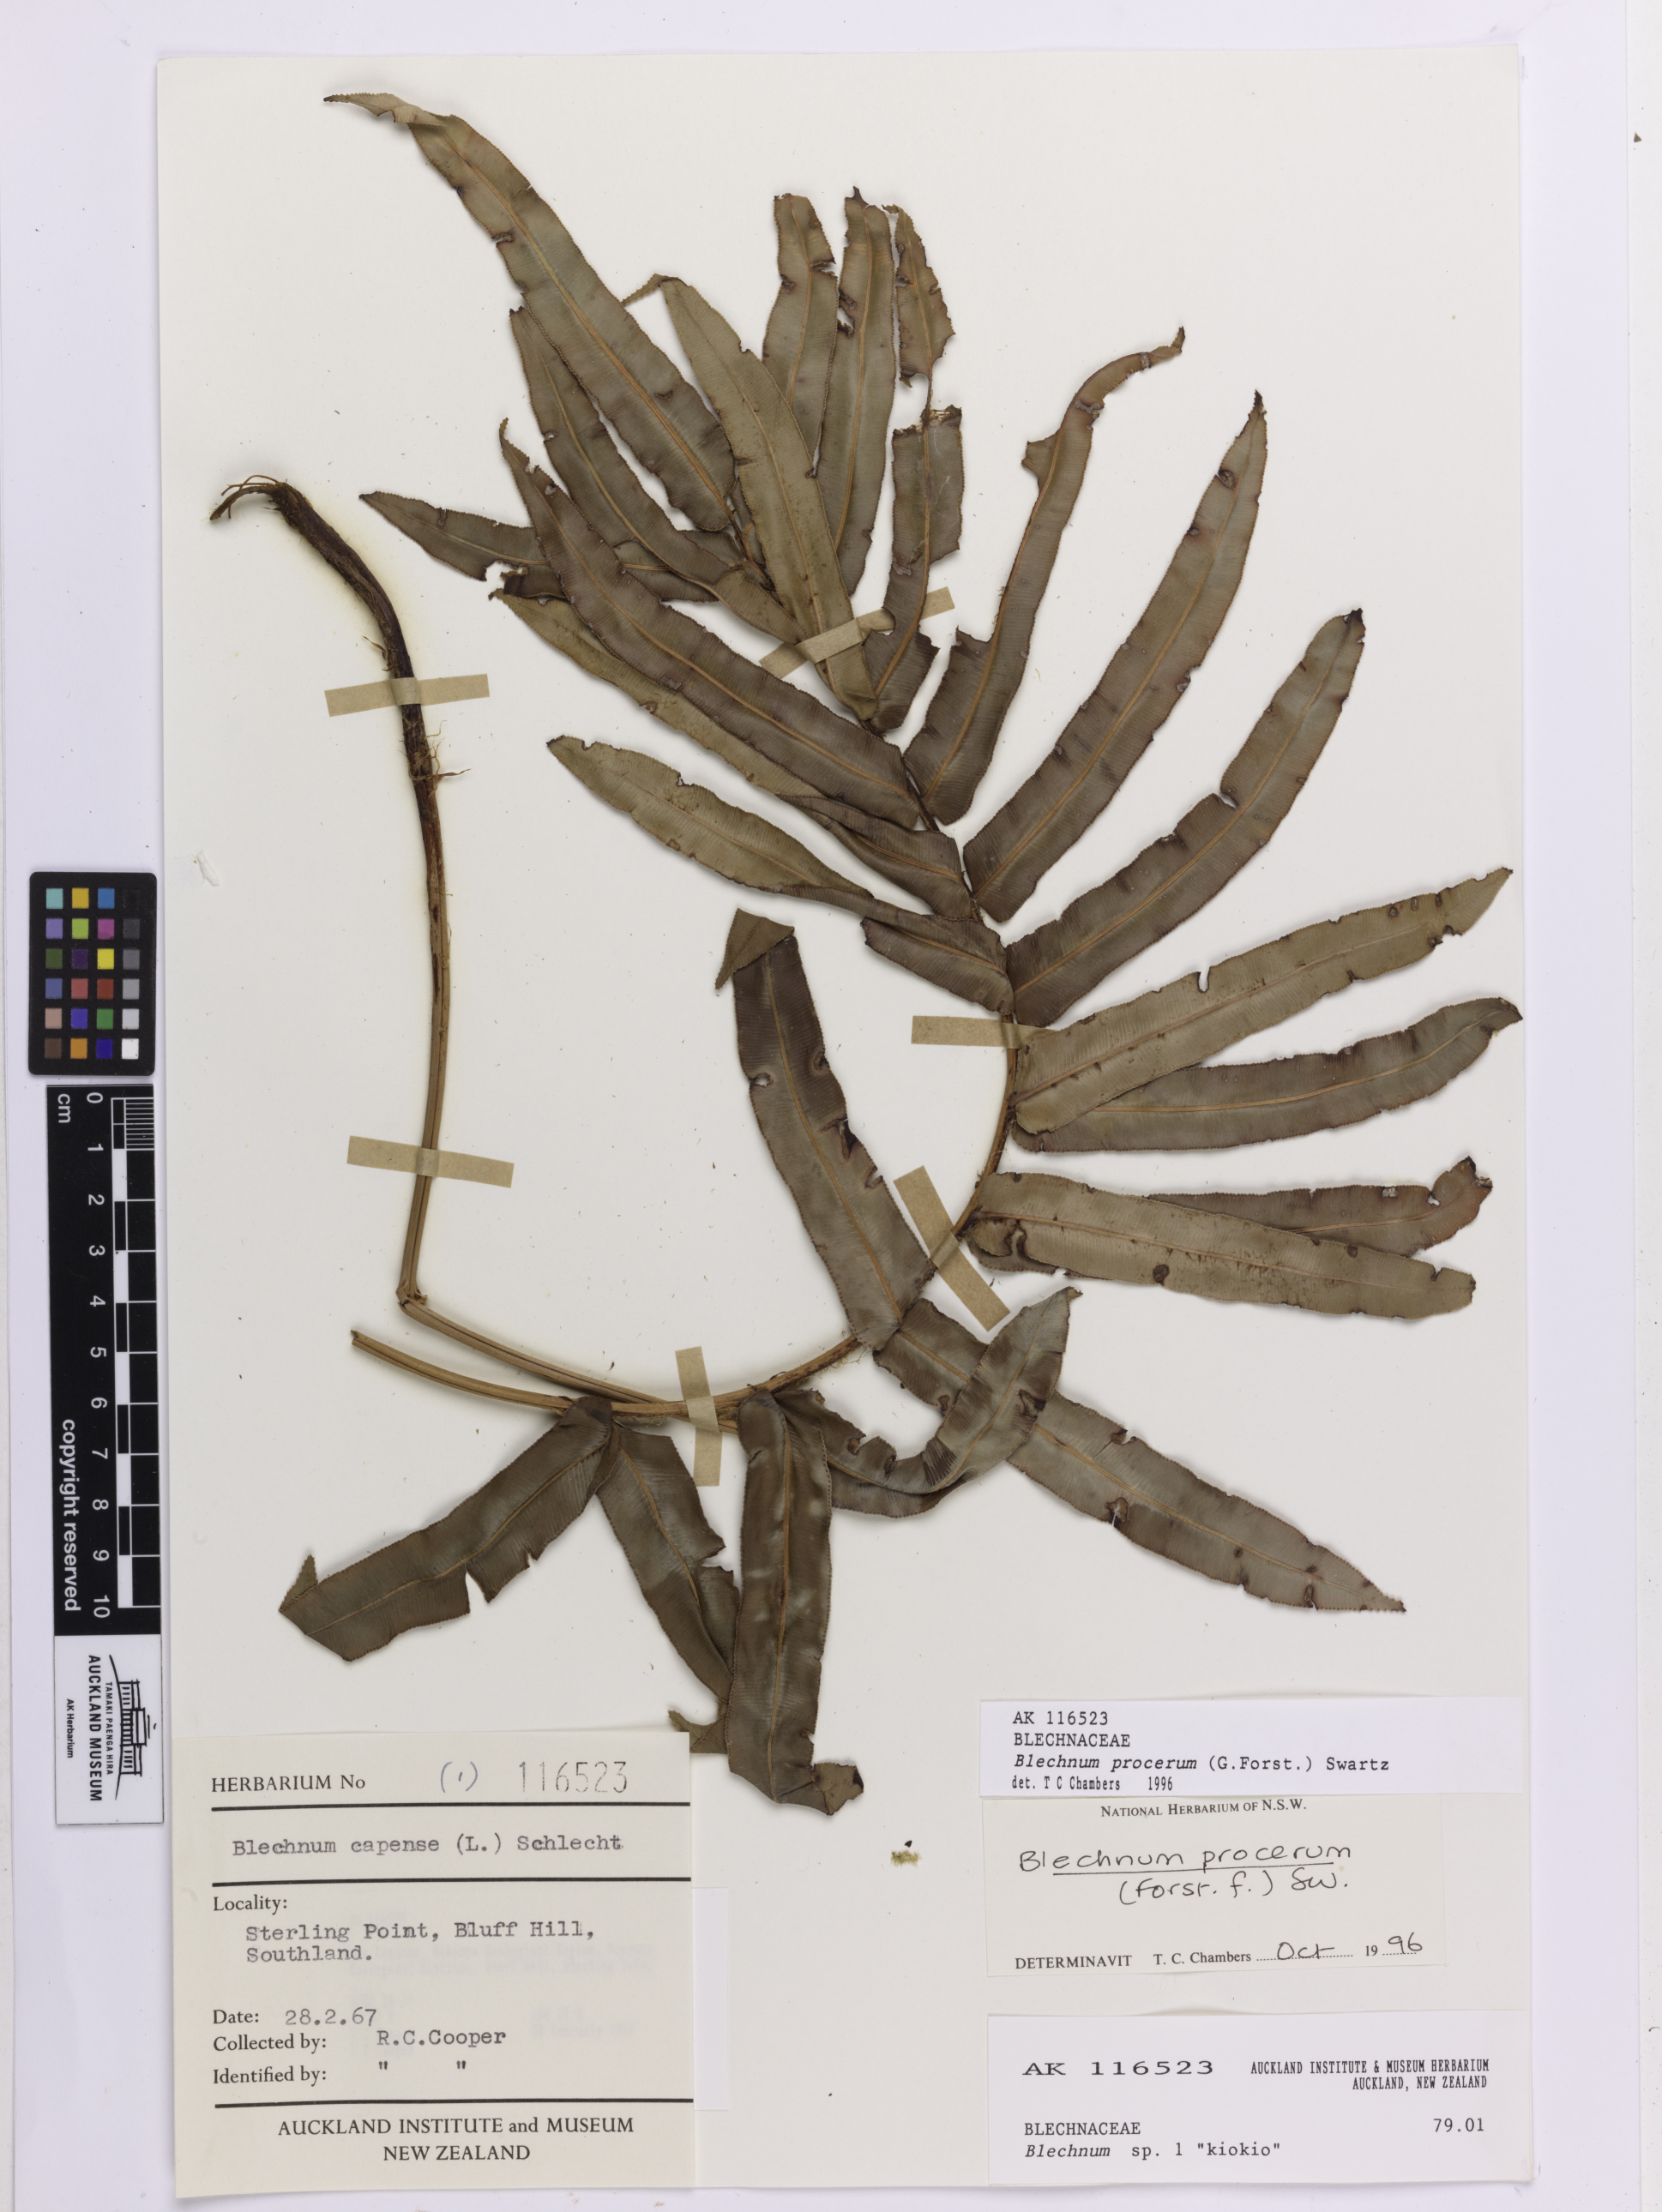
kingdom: Plantae
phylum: Tracheophyta
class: Polypodiopsida
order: Polypodiales
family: Blechnaceae
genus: Parablechnum
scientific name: Parablechnum procerum
